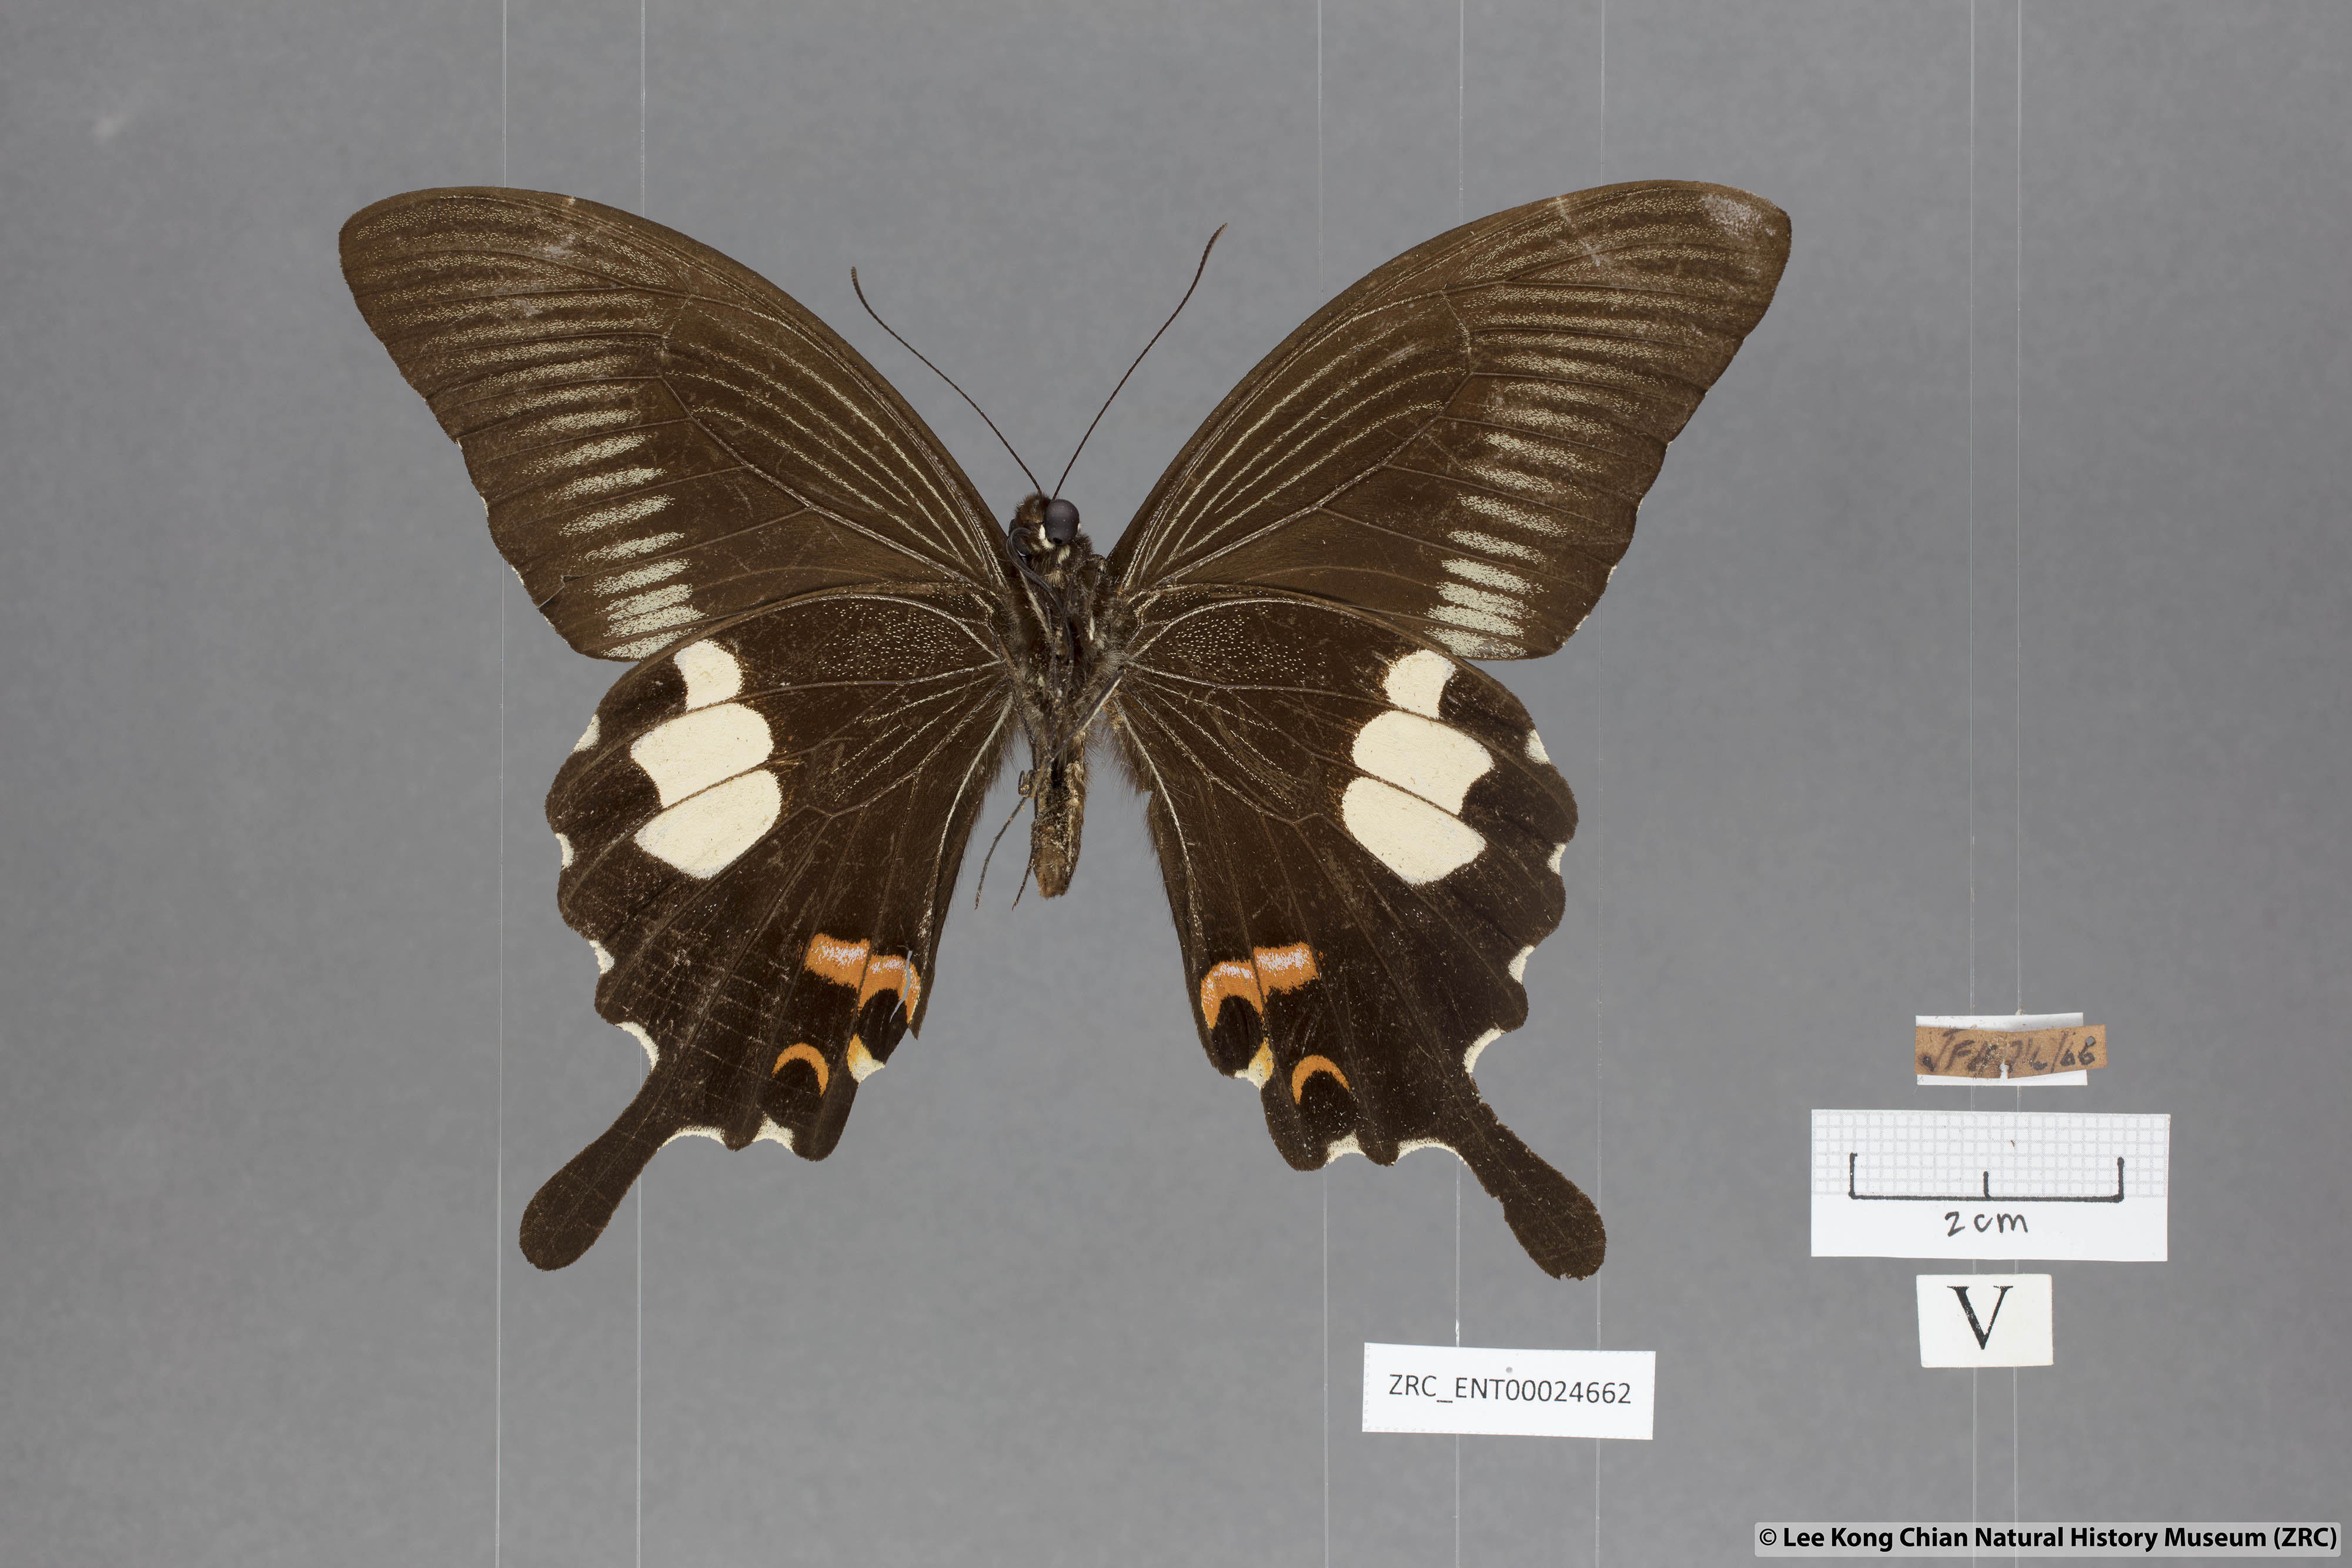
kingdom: Animalia
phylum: Arthropoda
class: Insecta
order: Lepidoptera
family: Papilionidae
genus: Papilio
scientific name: Papilio iswaroides
